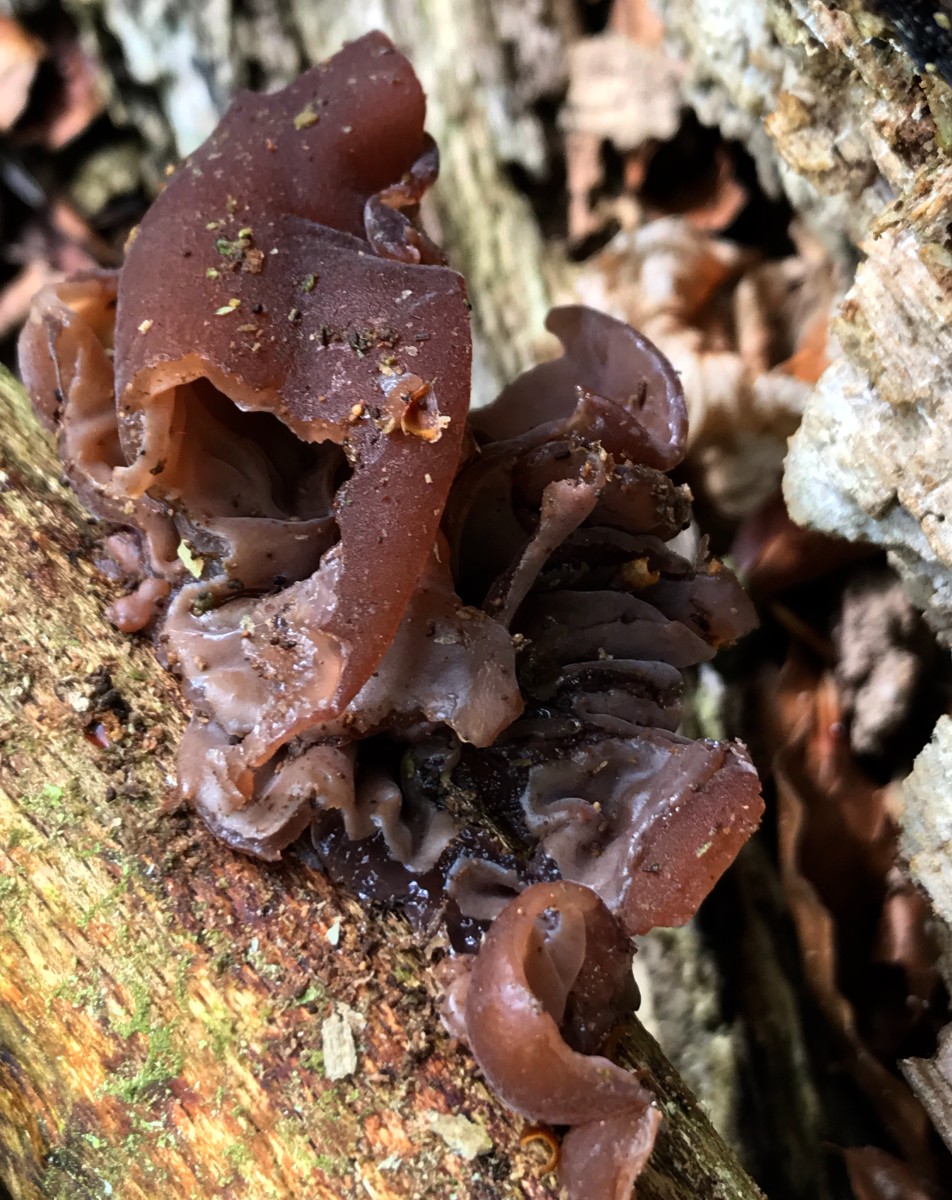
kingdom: Fungi
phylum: Basidiomycota
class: Agaricomycetes
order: Auriculariales
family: Auriculariaceae
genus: Auricularia
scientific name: Auricularia auricula-judae
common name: almindelig judasøre
